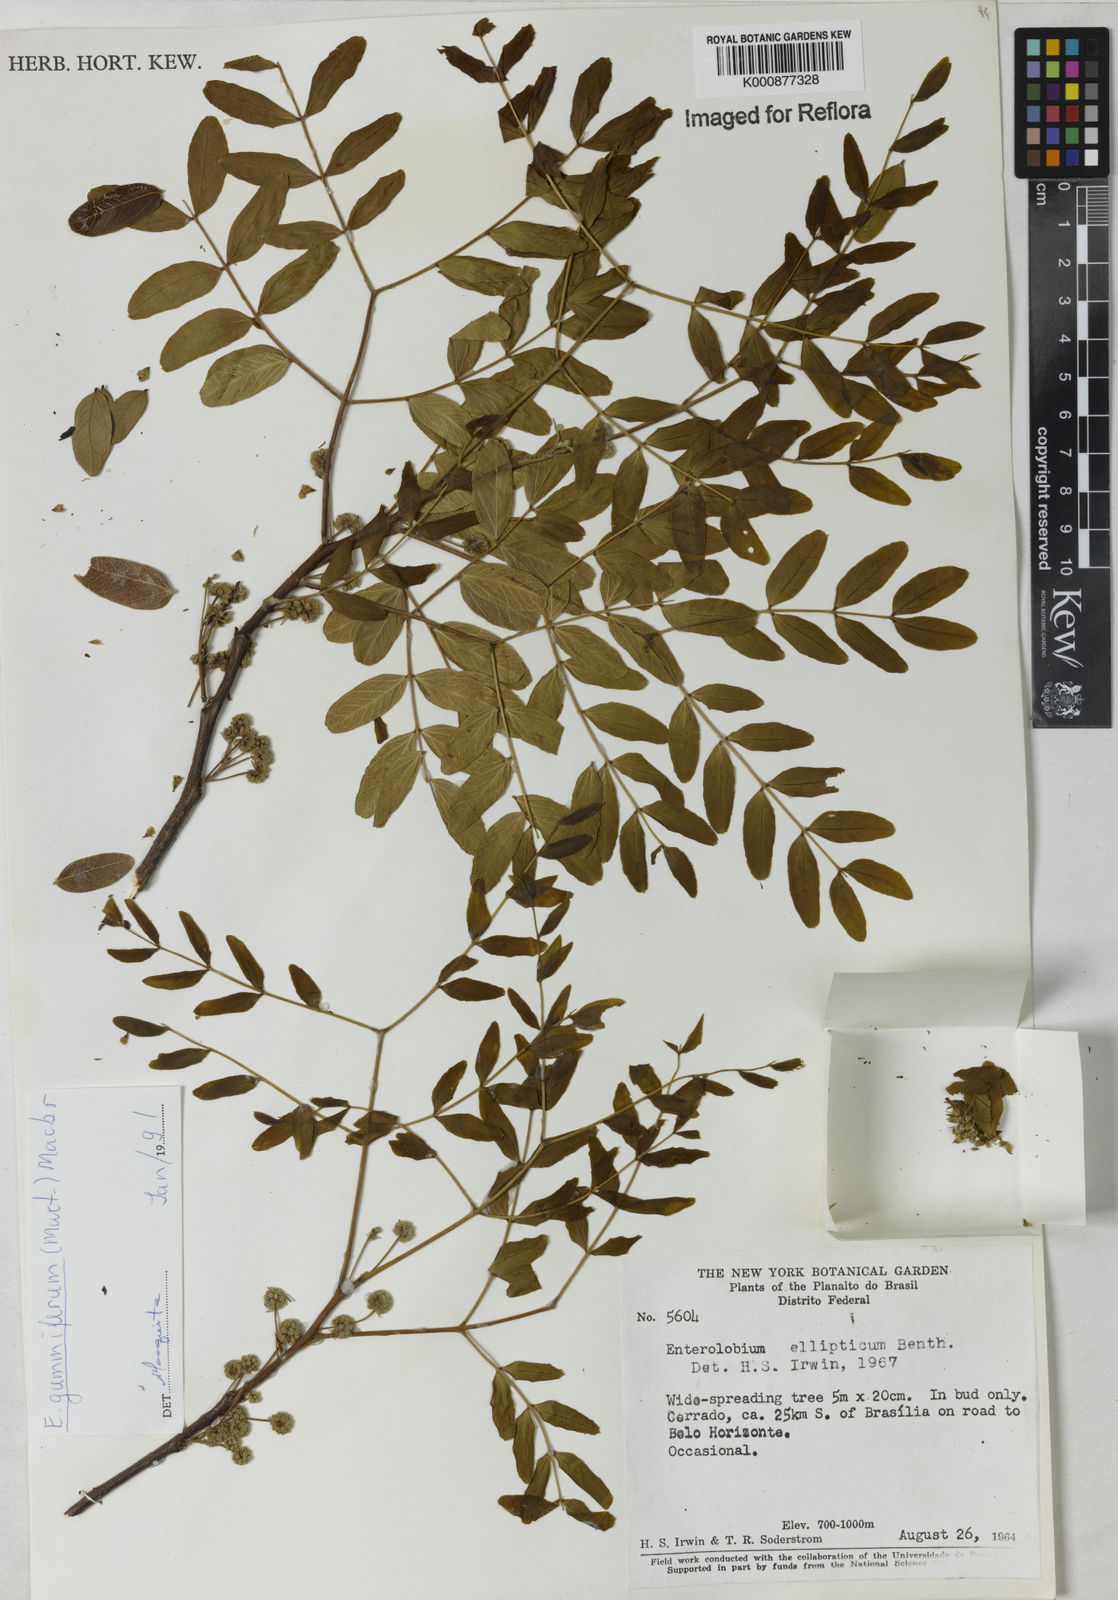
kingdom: Plantae
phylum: Tracheophyta
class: Magnoliopsida
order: Fabales
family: Fabaceae
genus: Enterolobium
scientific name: Enterolobium gummiferum
